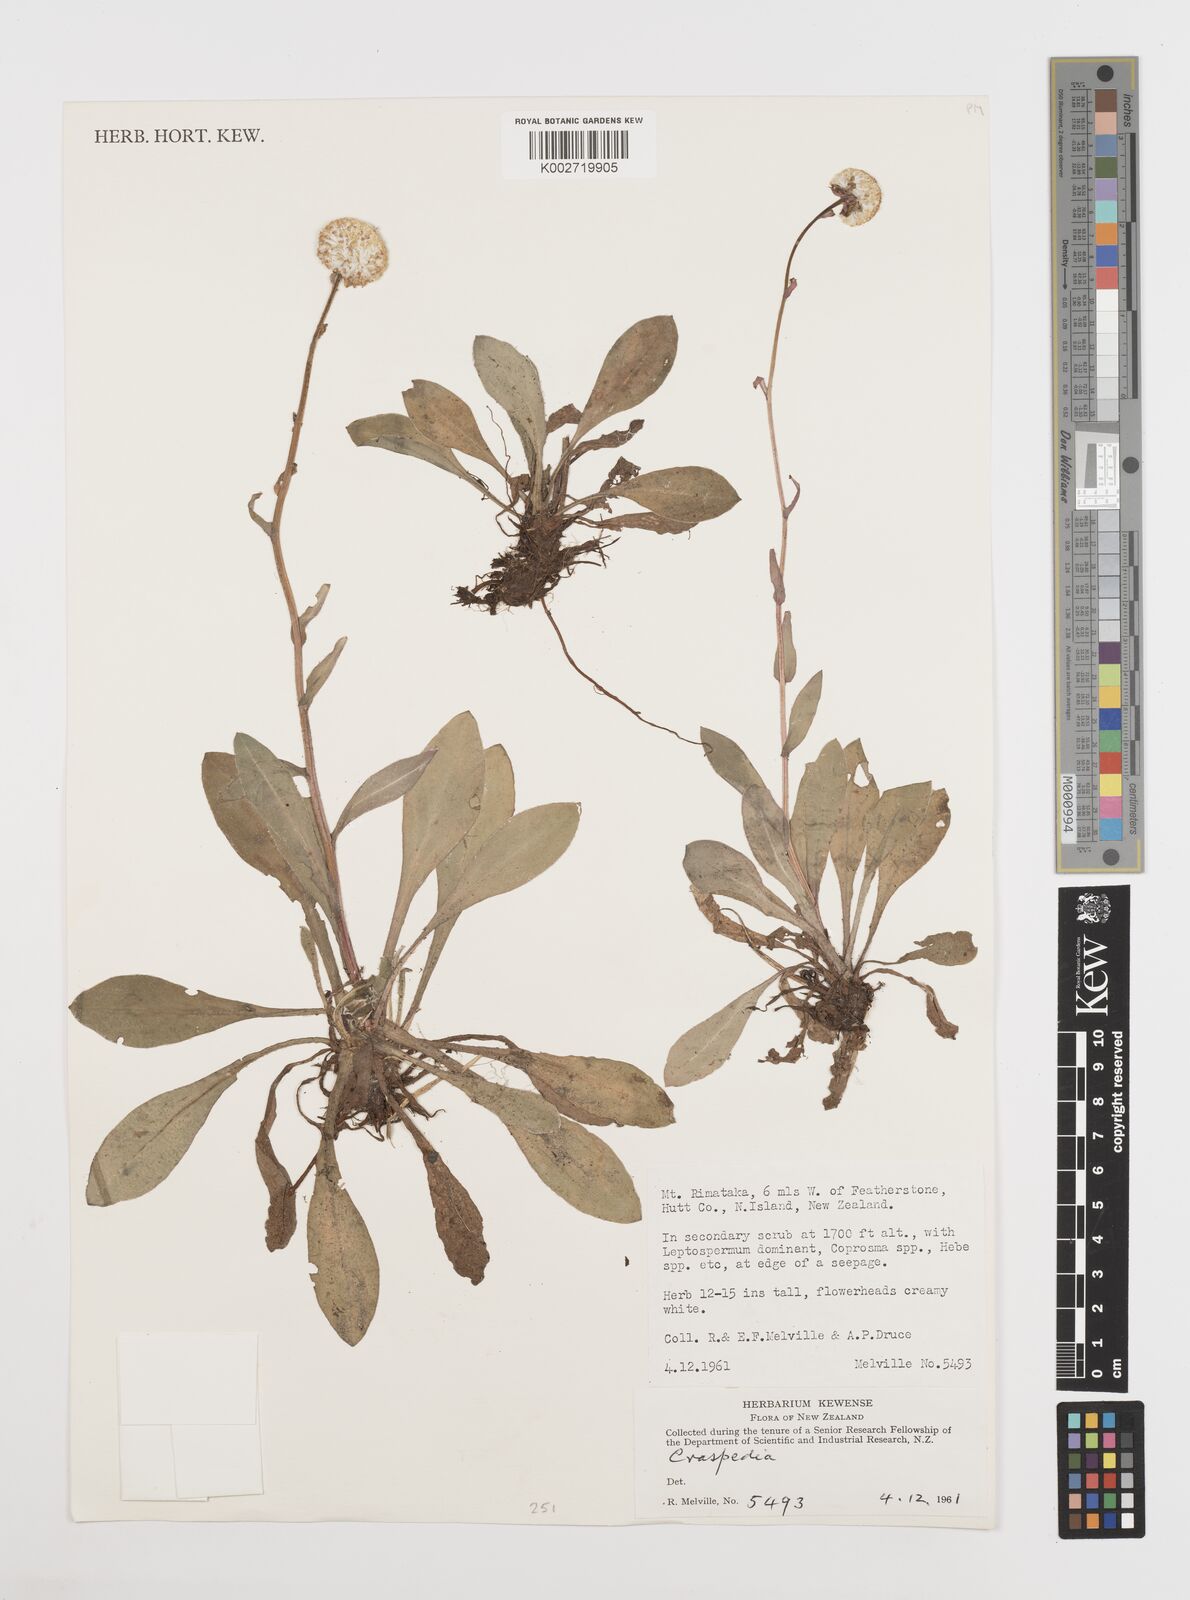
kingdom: Plantae
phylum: Tracheophyta
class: Magnoliopsida
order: Asterales
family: Asteraceae
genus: Craspedia
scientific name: Craspedia
